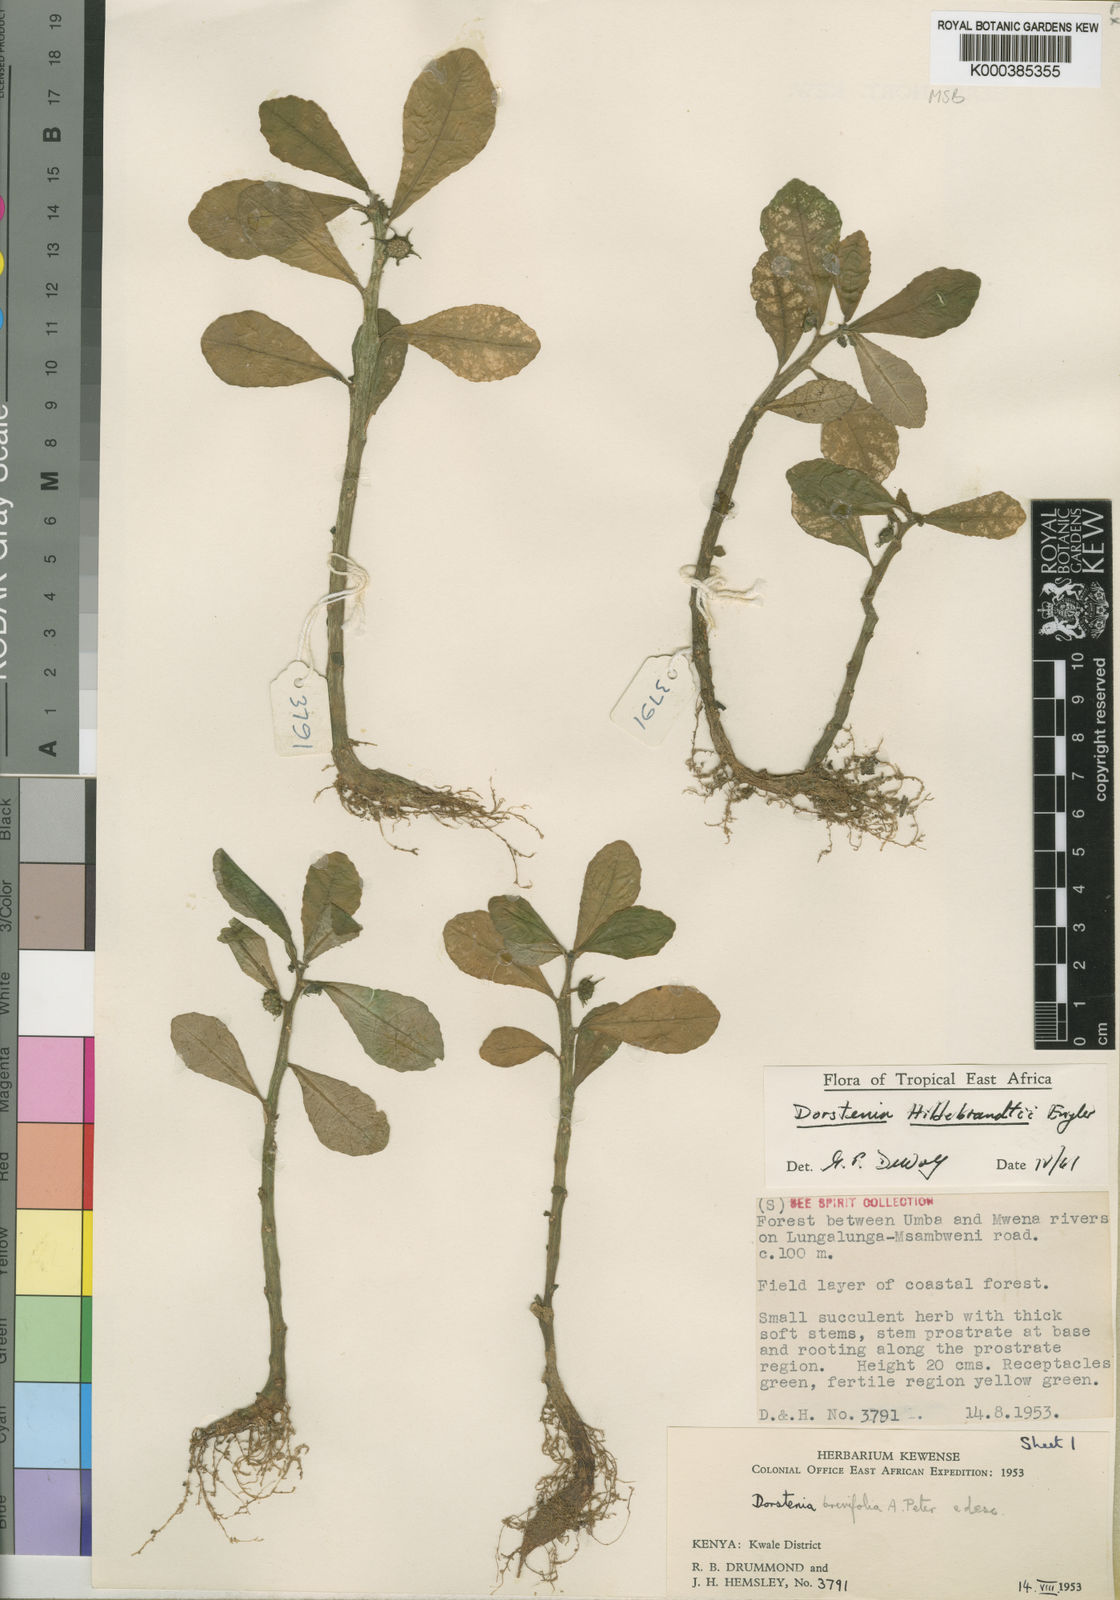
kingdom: Plantae
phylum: Tracheophyta
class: Magnoliopsida
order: Rosales
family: Moraceae
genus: Dorstenia
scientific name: Dorstenia hildebrandtii
